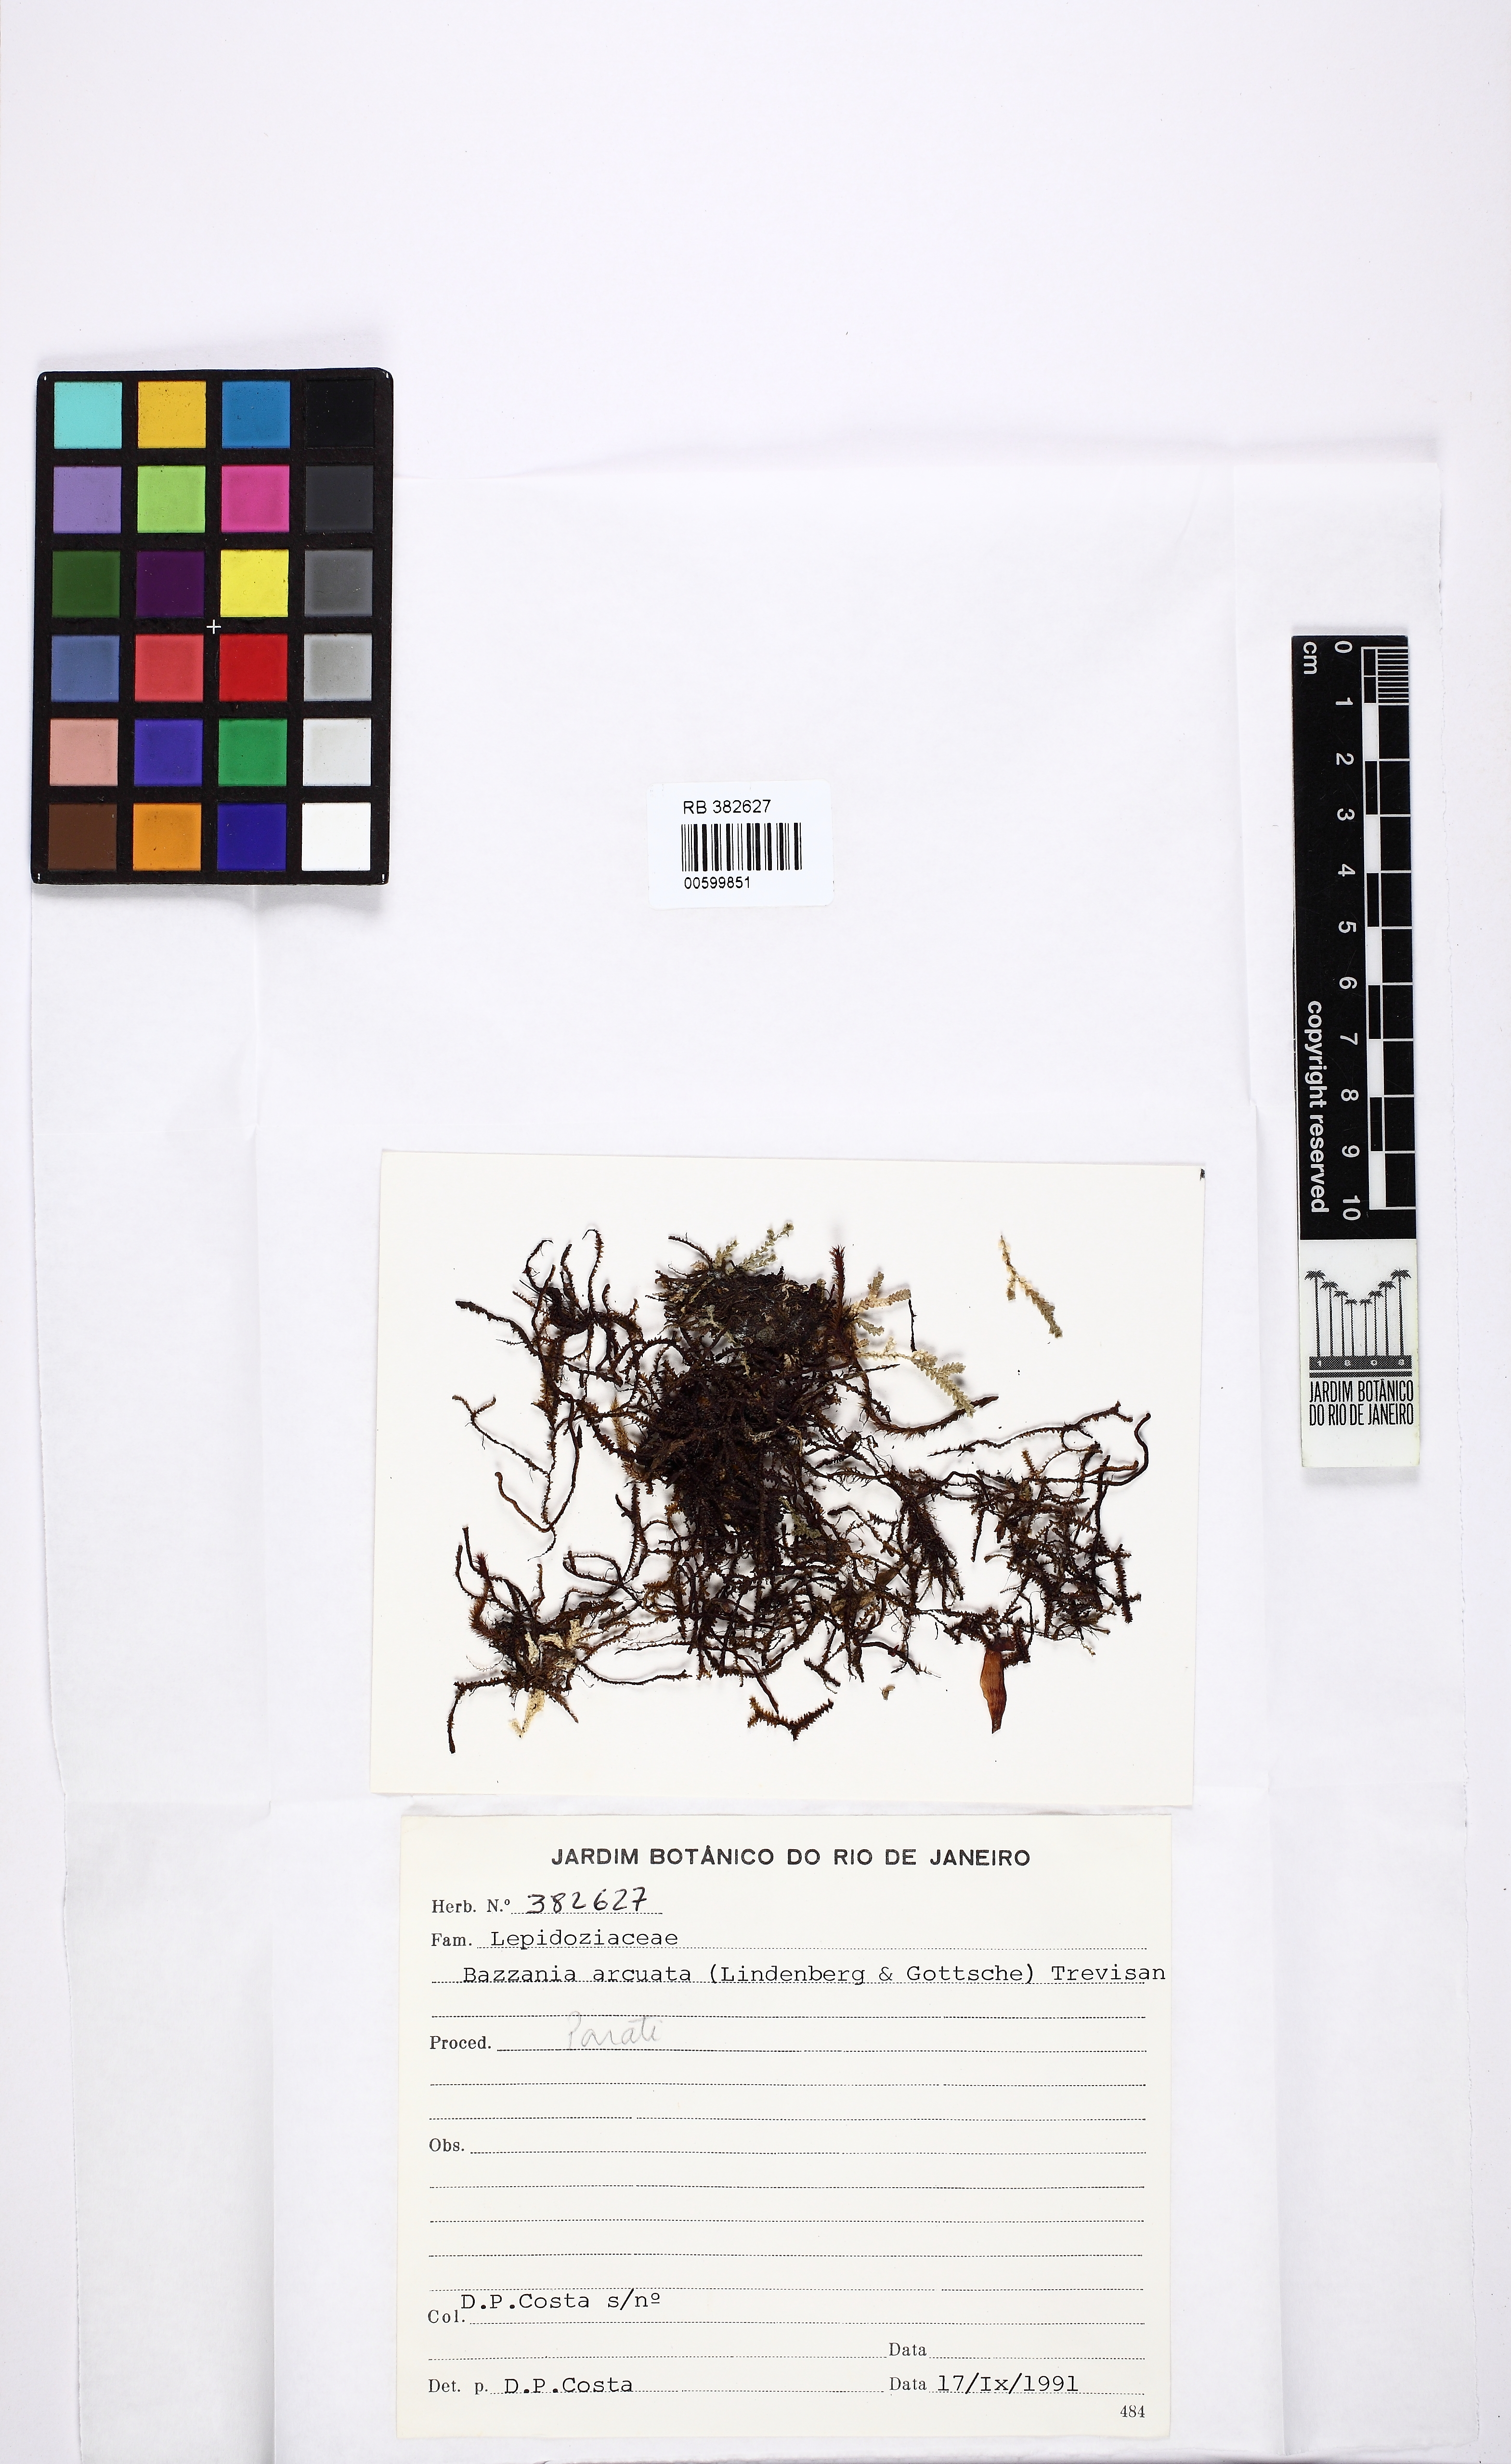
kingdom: Plantae
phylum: Marchantiophyta
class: Jungermanniopsida
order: Jungermanniales
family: Lepidoziaceae
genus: Bazzania
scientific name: Bazzania hookeri
